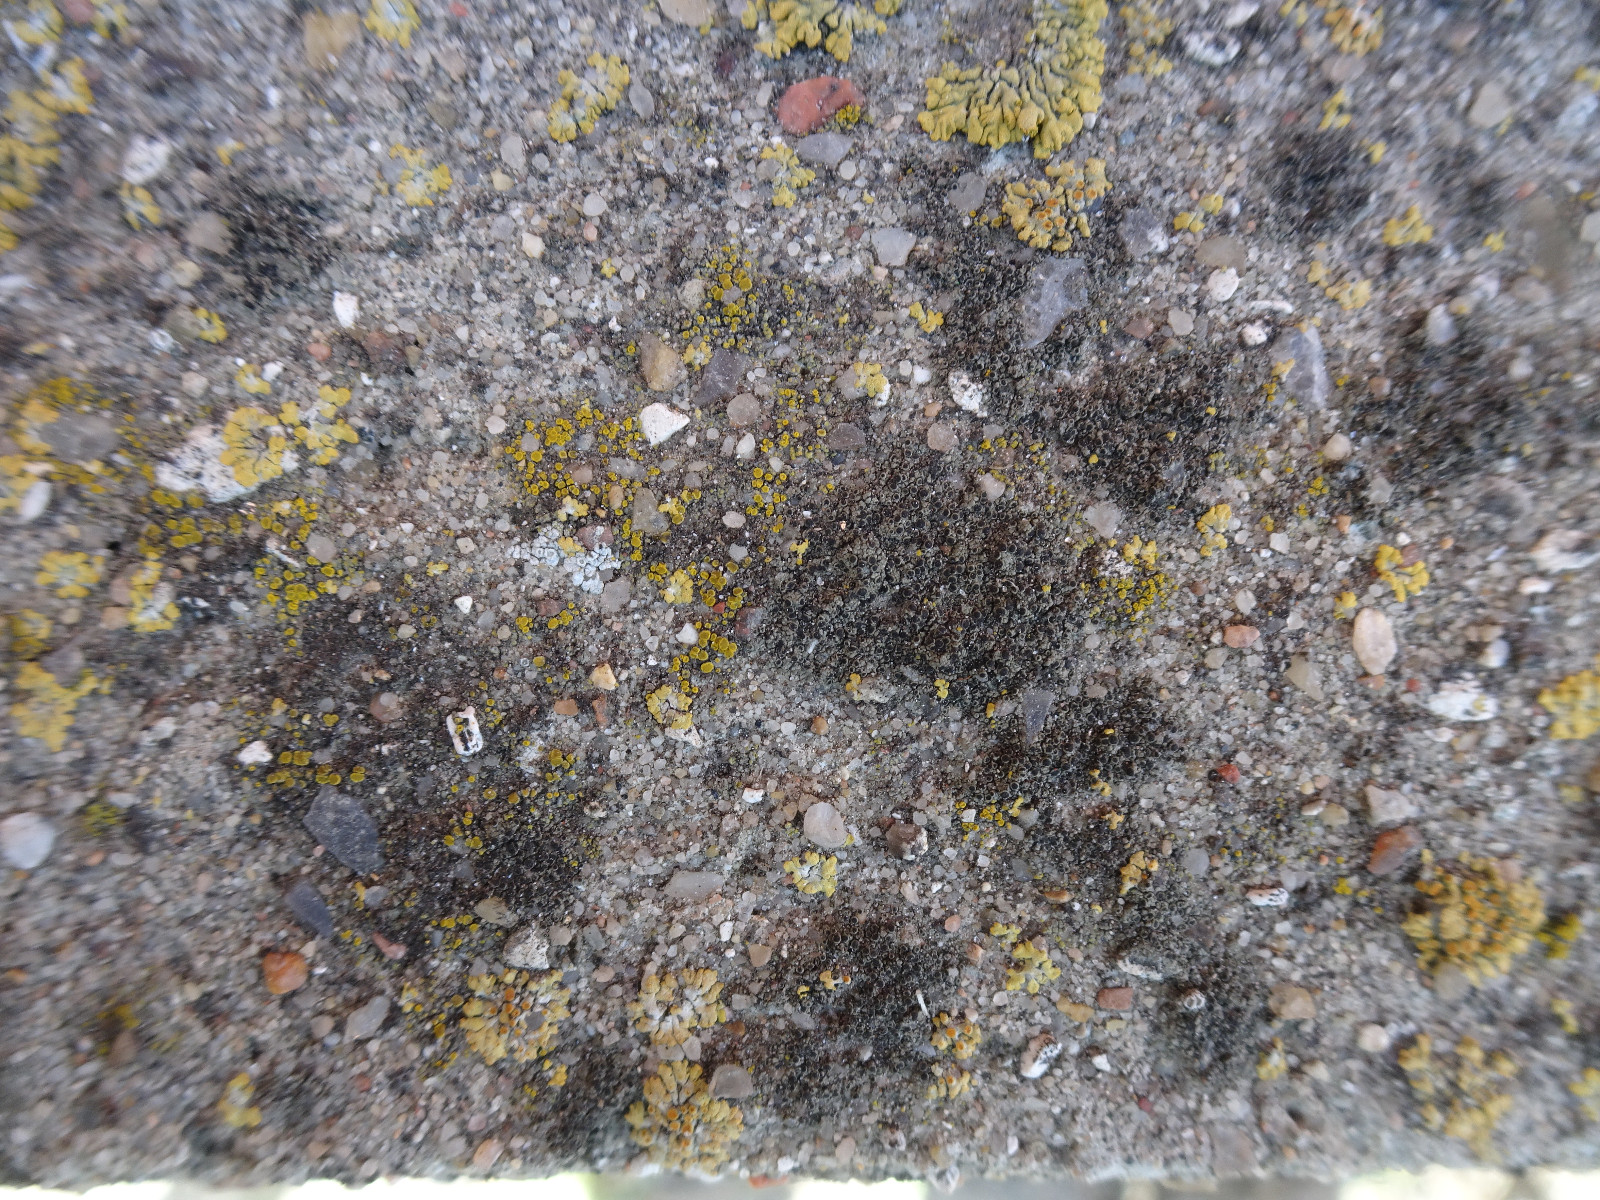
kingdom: Fungi
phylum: Ascomycota
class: Lecanoromycetes
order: Caliciales
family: Physciaceae
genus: Rinodina
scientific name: Rinodina oleae
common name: kyst-knaplav
